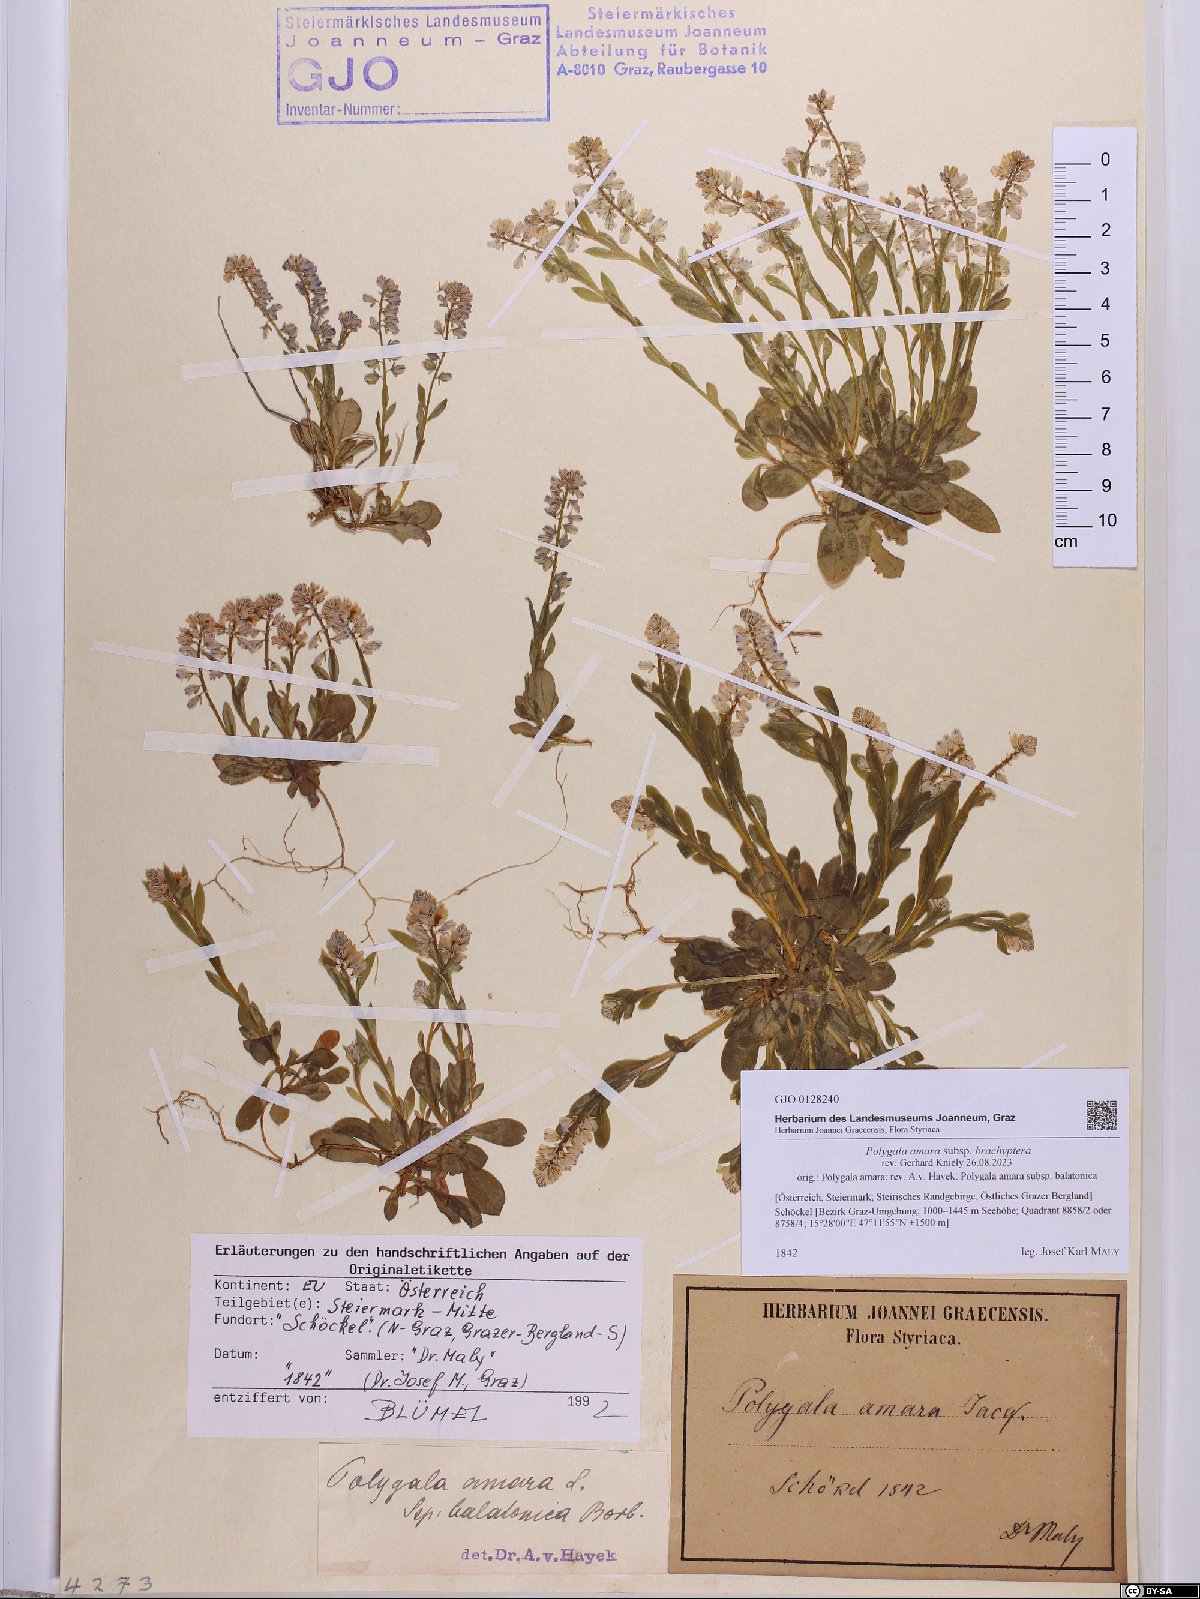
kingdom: Plantae
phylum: Tracheophyta
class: Magnoliopsida
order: Fabales
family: Polygalaceae
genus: Polygala
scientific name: Polygala amara
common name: Milkwort
